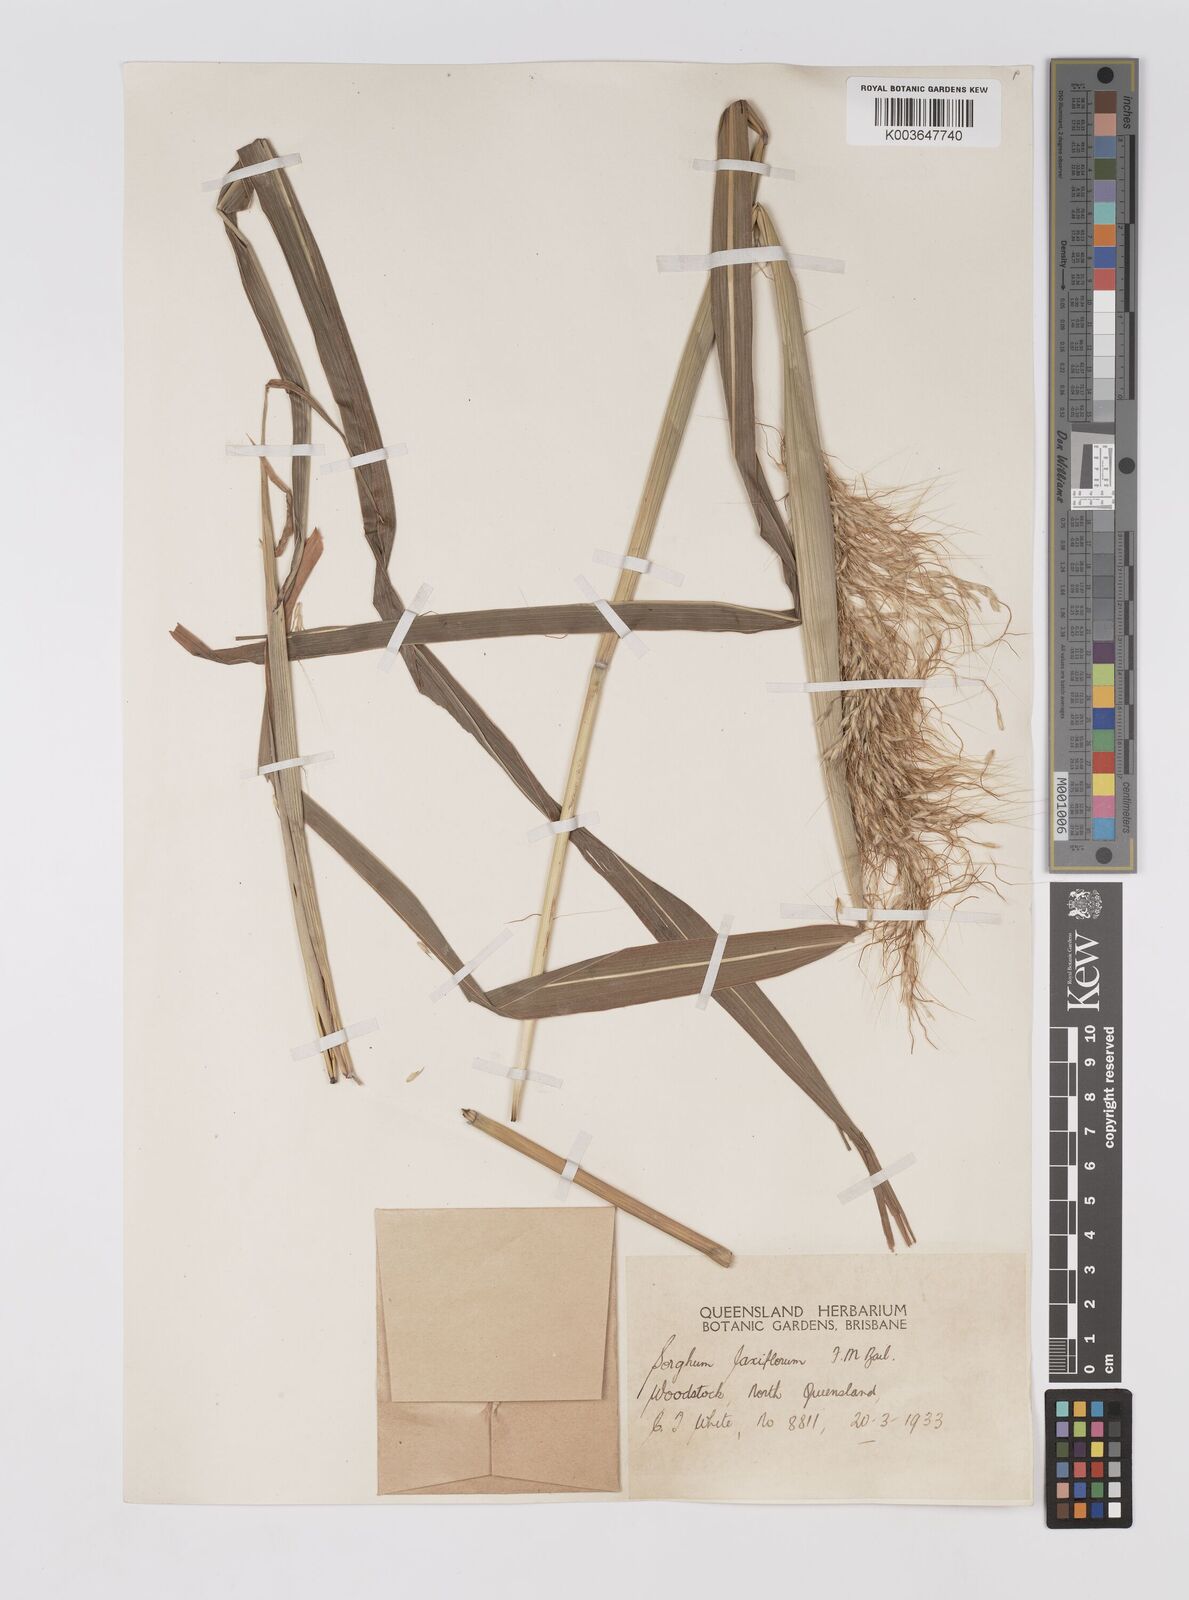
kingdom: Plantae
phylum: Tracheophyta
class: Liliopsida
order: Poales
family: Poaceae
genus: Sorghum
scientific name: Sorghum laxiflorum
